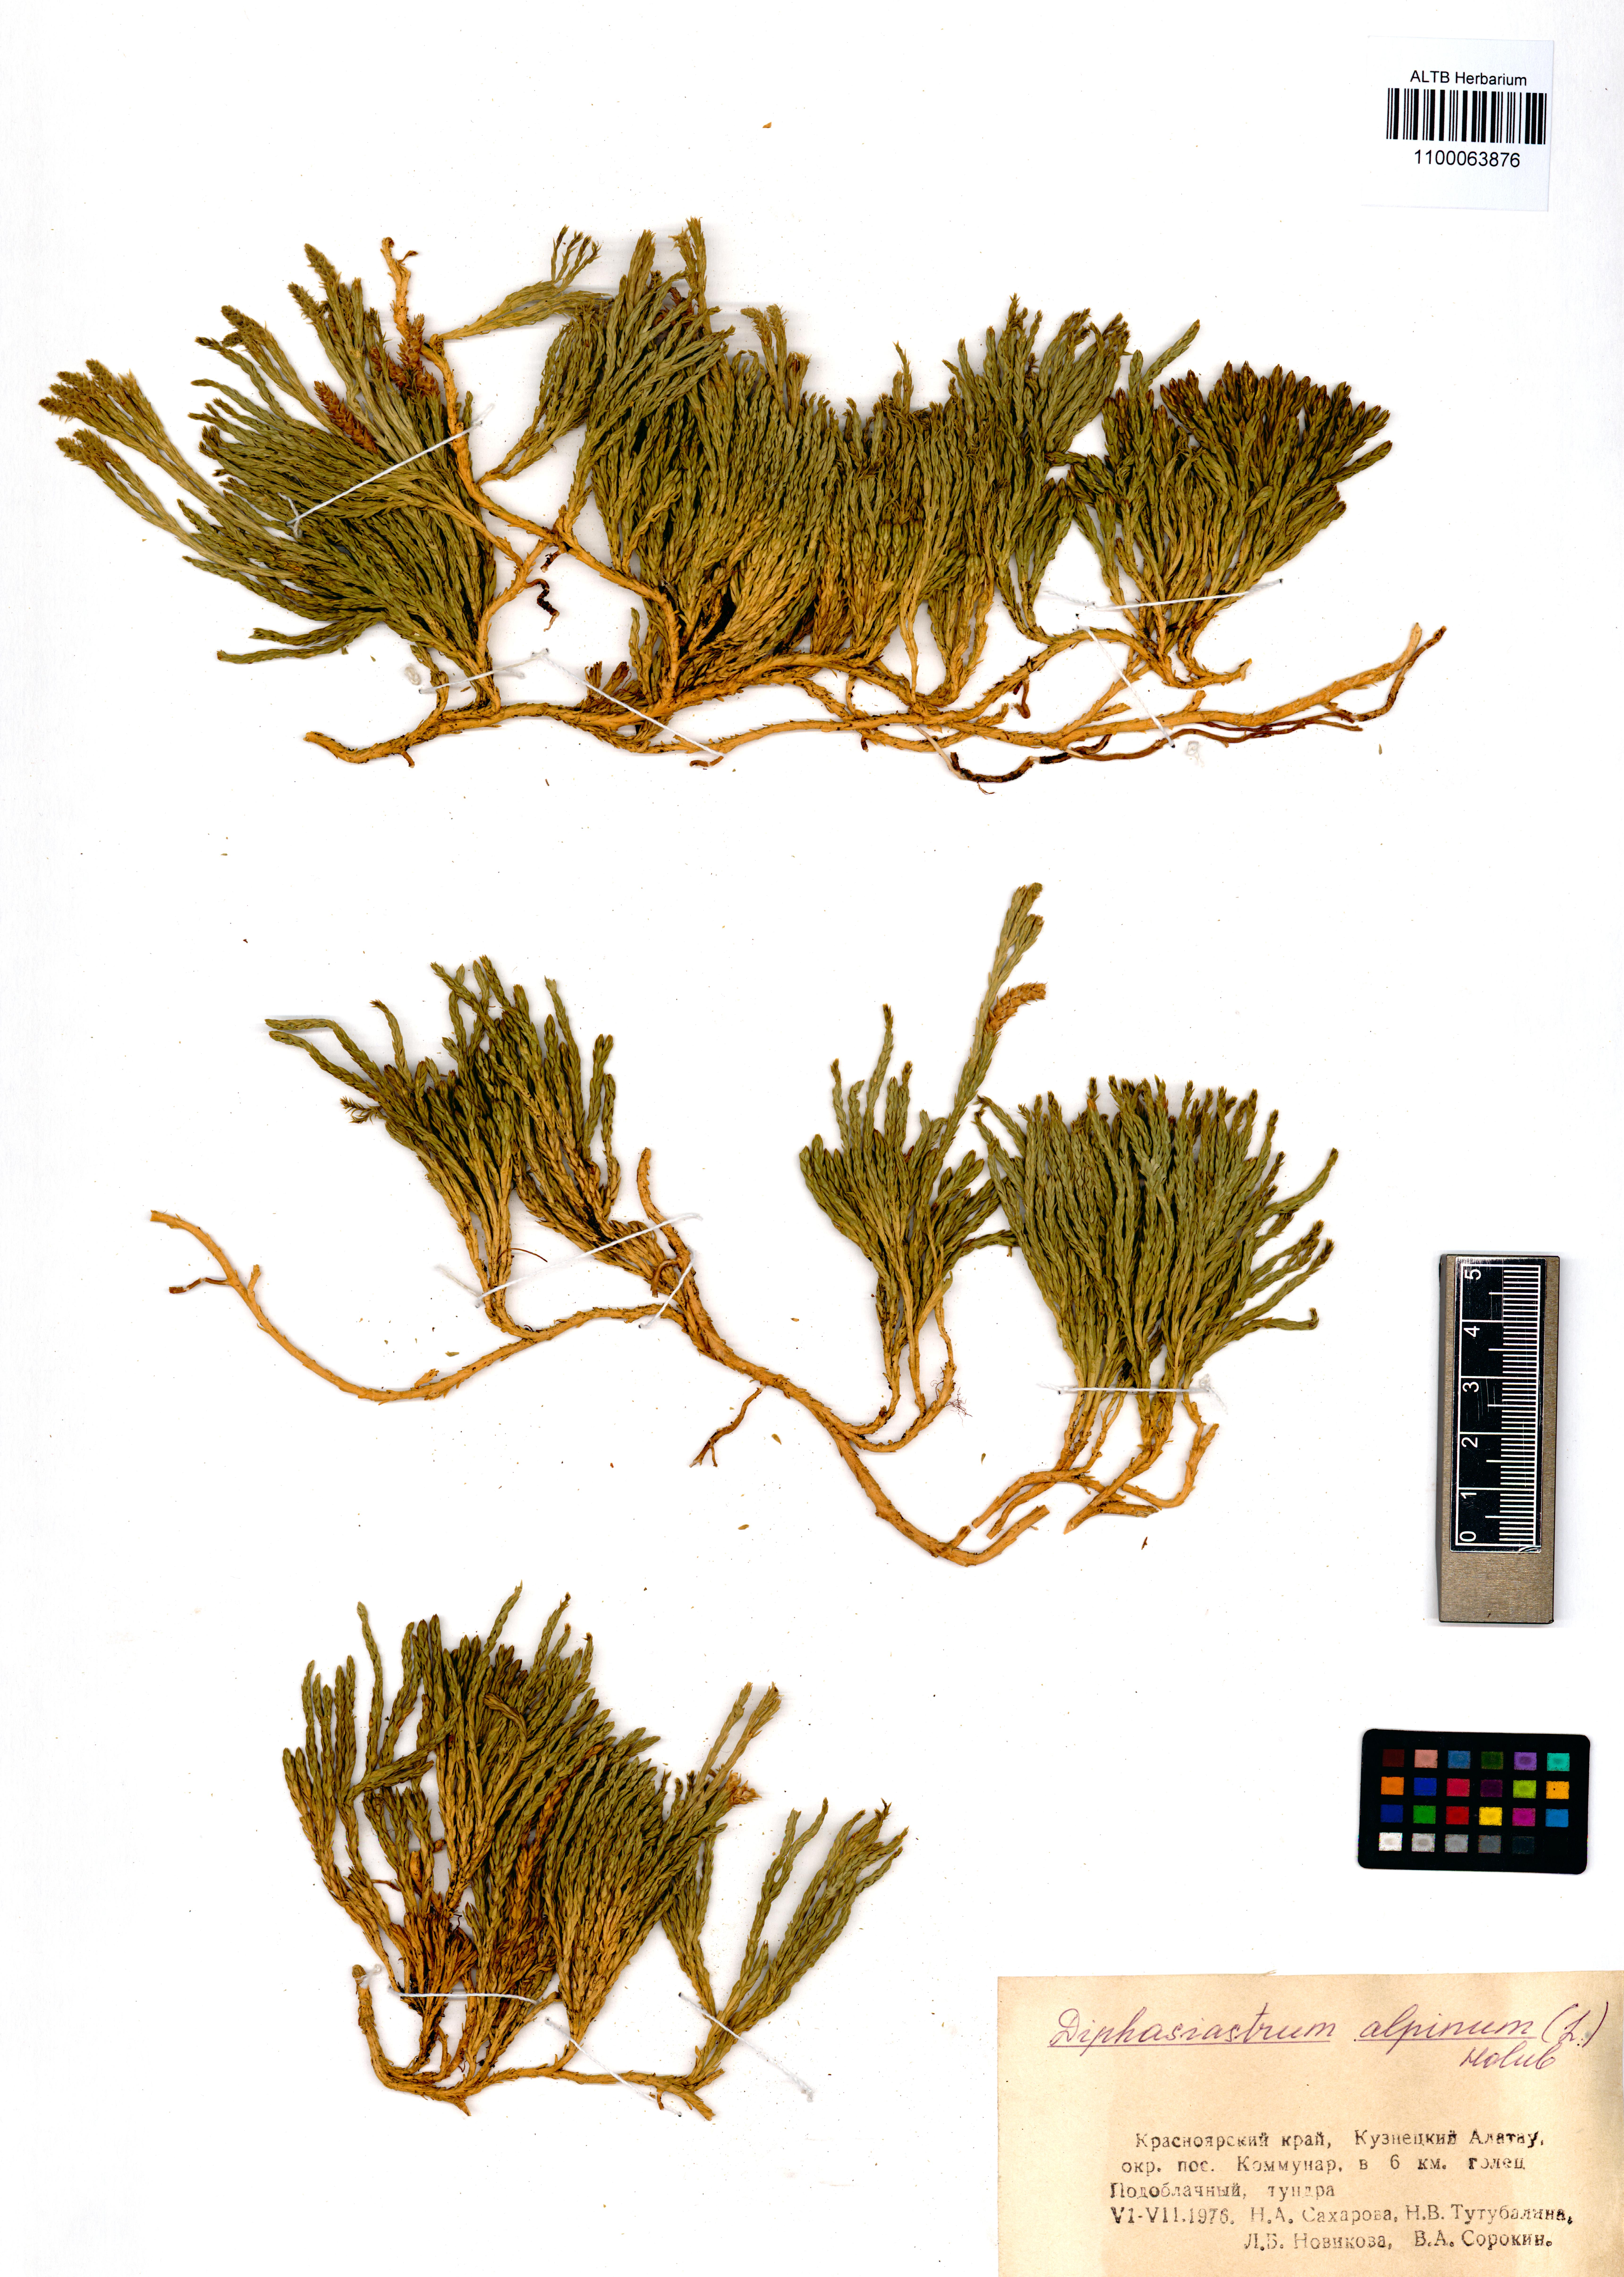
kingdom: Plantae
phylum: Tracheophyta
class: Lycopodiopsida
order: Lycopodiales
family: Lycopodiaceae
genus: Diphasiastrum
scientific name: Diphasiastrum alpinum
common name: Alpine clubmoss
